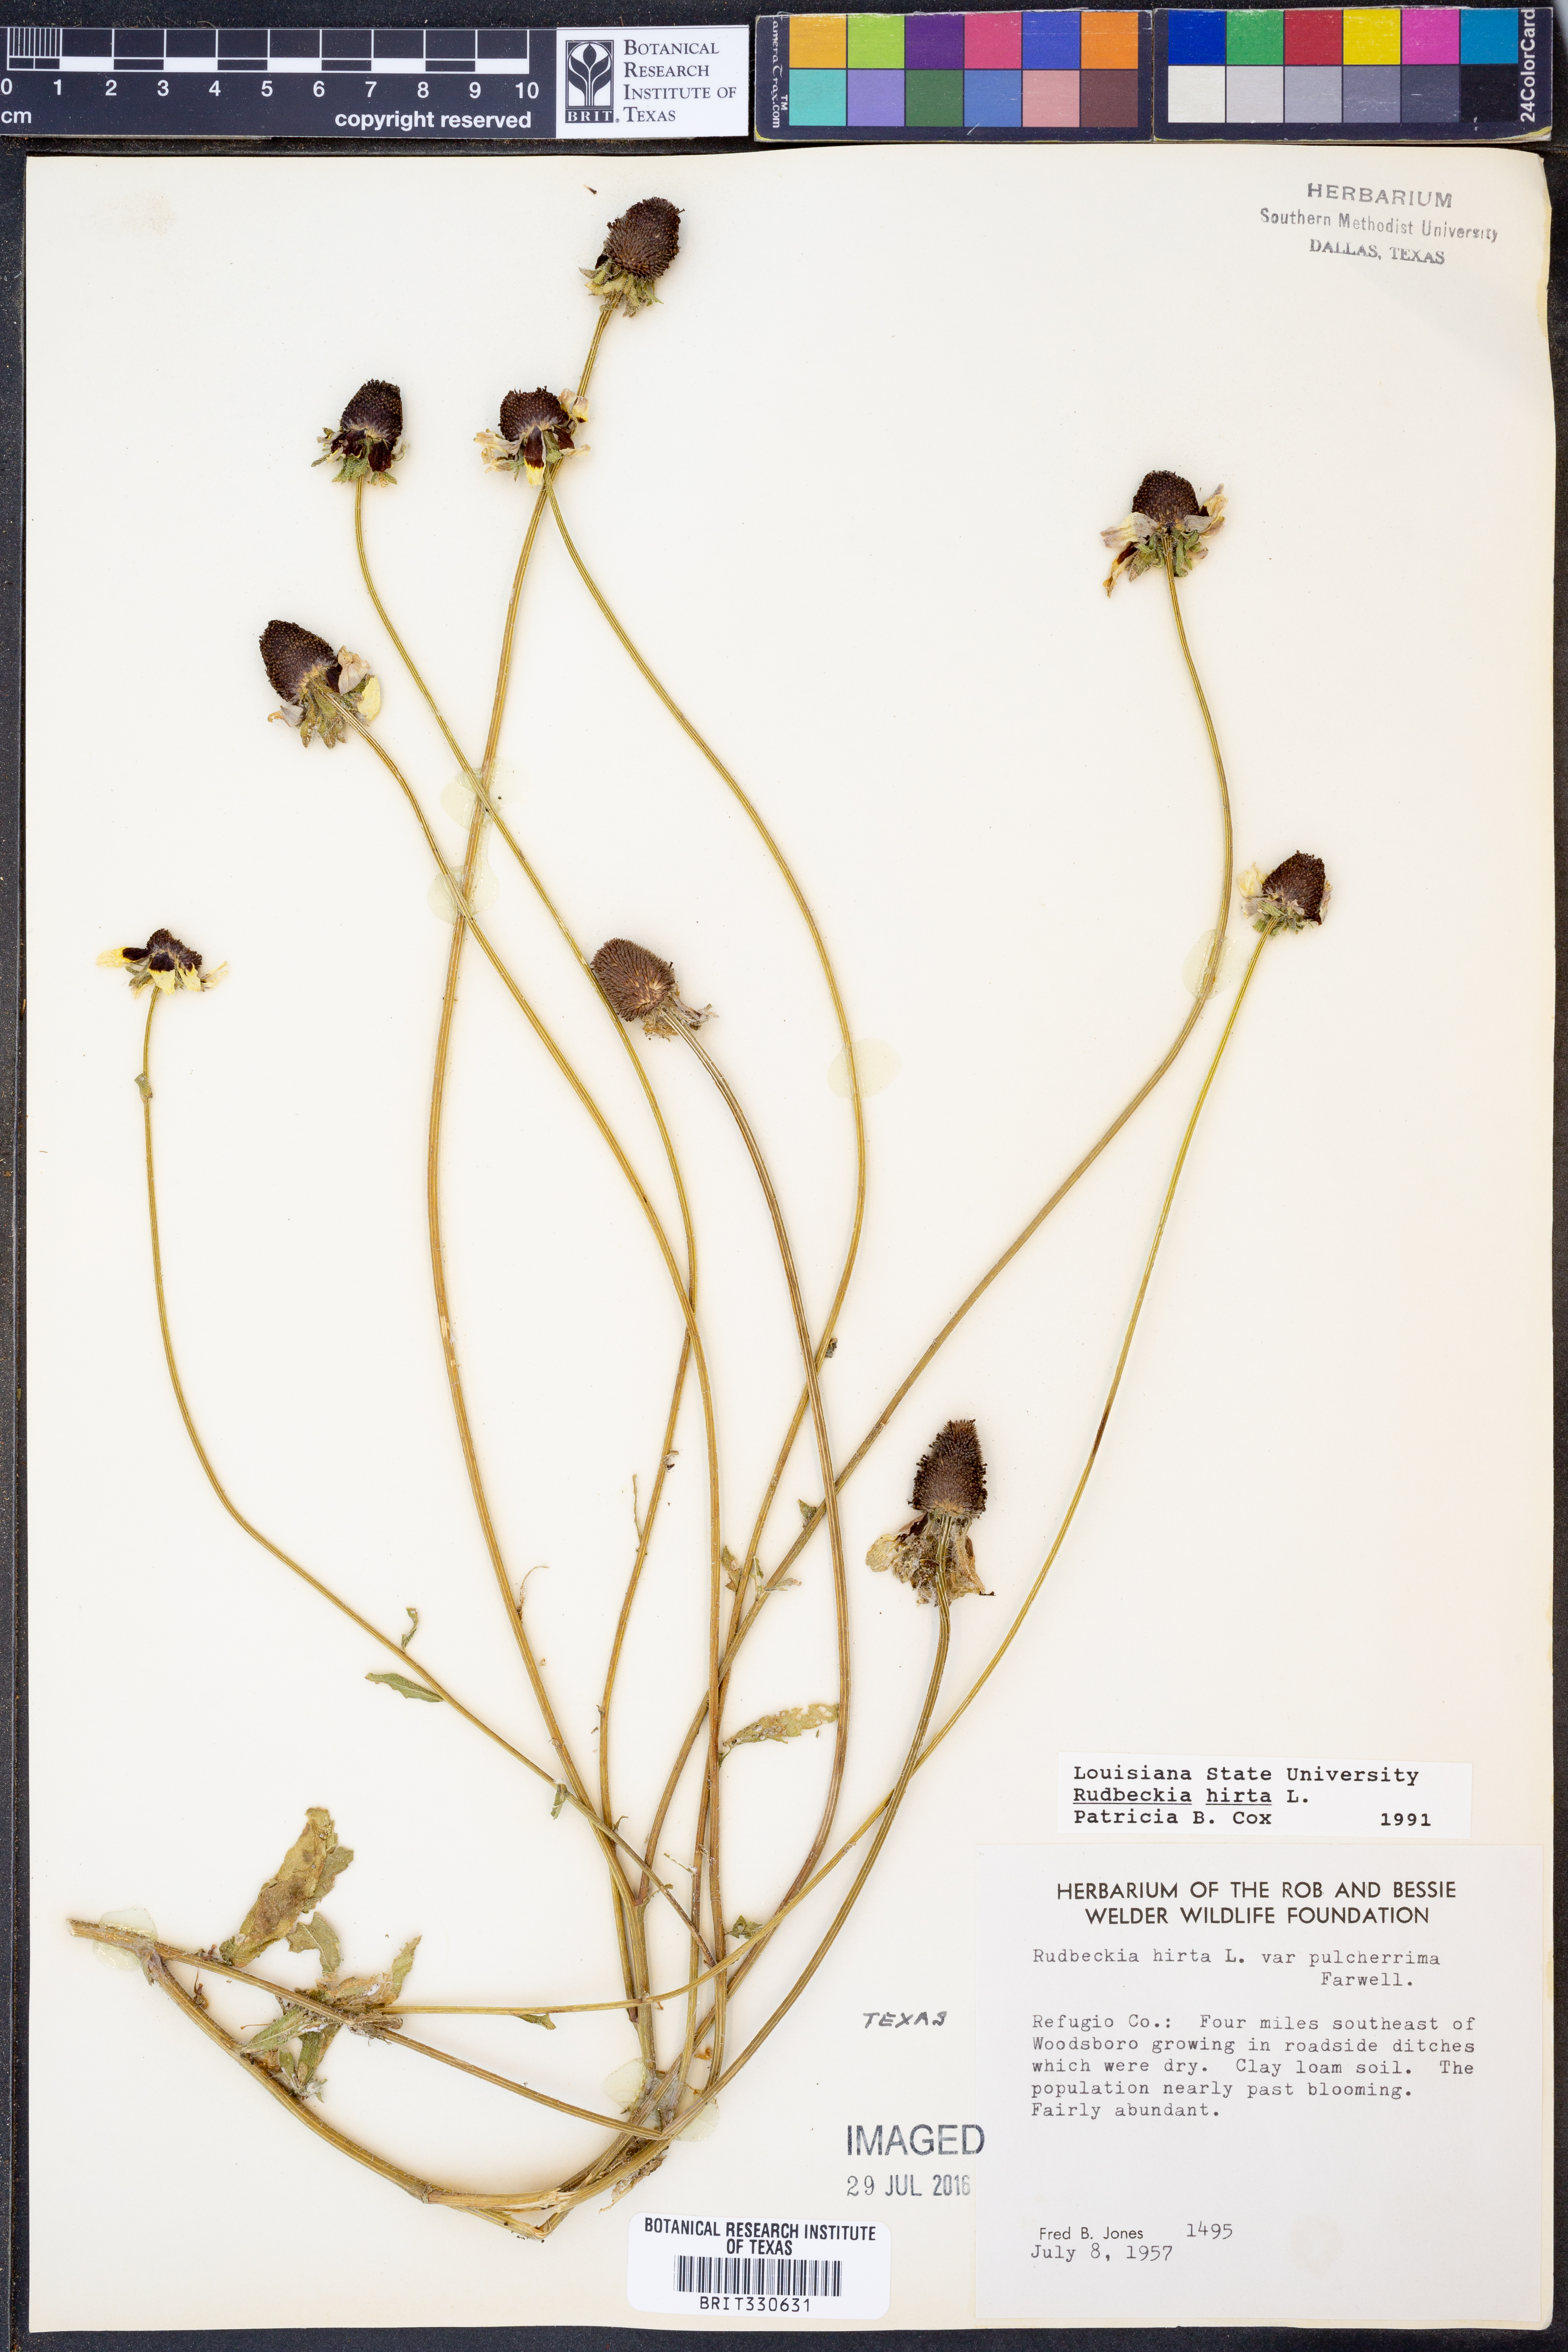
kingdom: Plantae
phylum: Tracheophyta
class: Magnoliopsida
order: Asterales
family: Asteraceae
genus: Rudbeckia
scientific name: Rudbeckia hirta
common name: Black-eyed-susan
